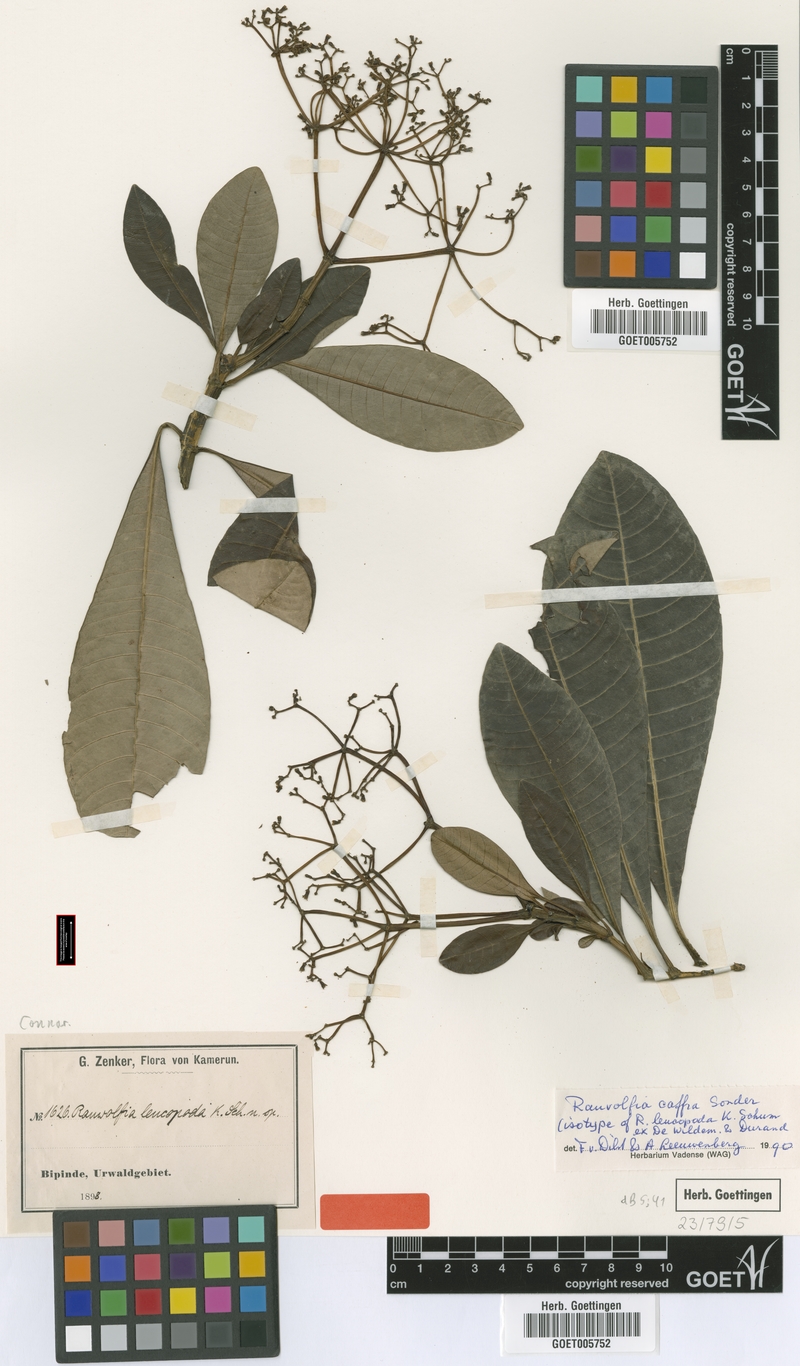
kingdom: Plantae
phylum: Tracheophyta
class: Magnoliopsida
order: Gentianales
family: Apocynaceae
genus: Rauvolfia
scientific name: Rauvolfia caffra
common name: Quininetree
